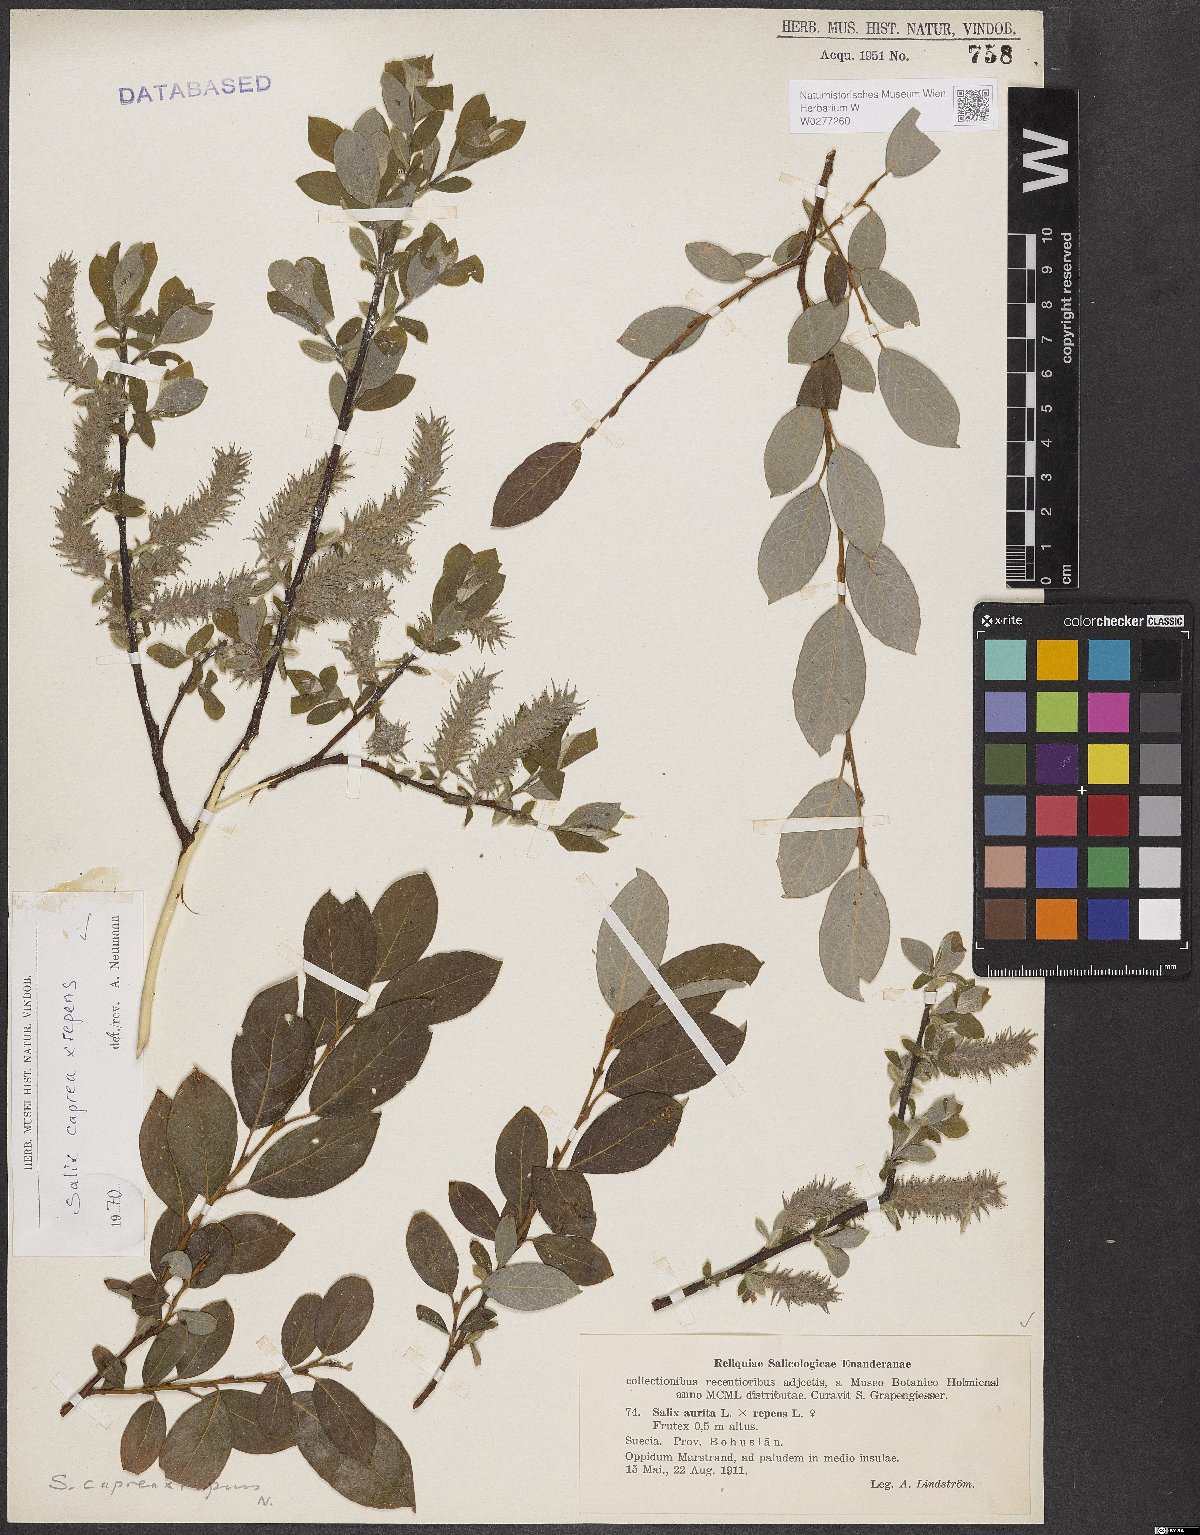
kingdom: Plantae
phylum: Tracheophyta
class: Magnoliopsida
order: Malpighiales
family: Salicaceae
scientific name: Salicaceae
